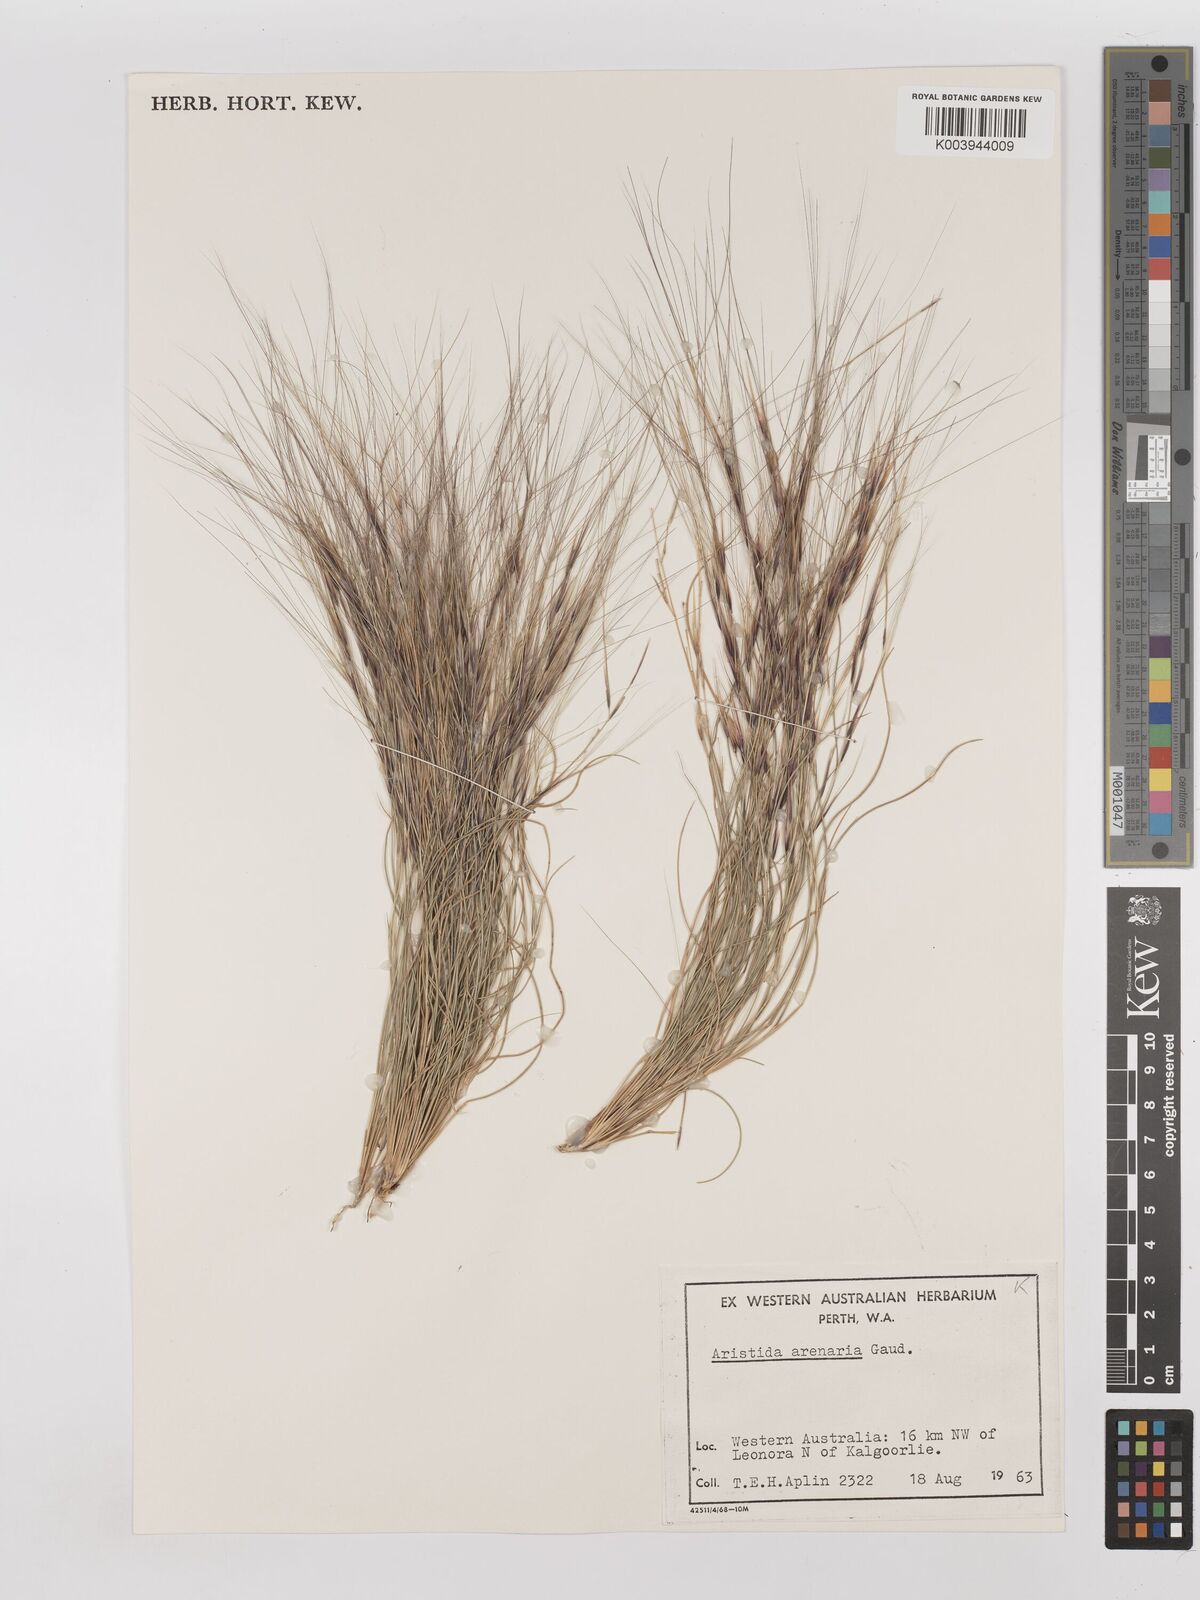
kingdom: Plantae
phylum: Tracheophyta
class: Liliopsida
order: Poales
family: Poaceae
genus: Aristida
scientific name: Aristida contorta
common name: Bunch kerosene grass
